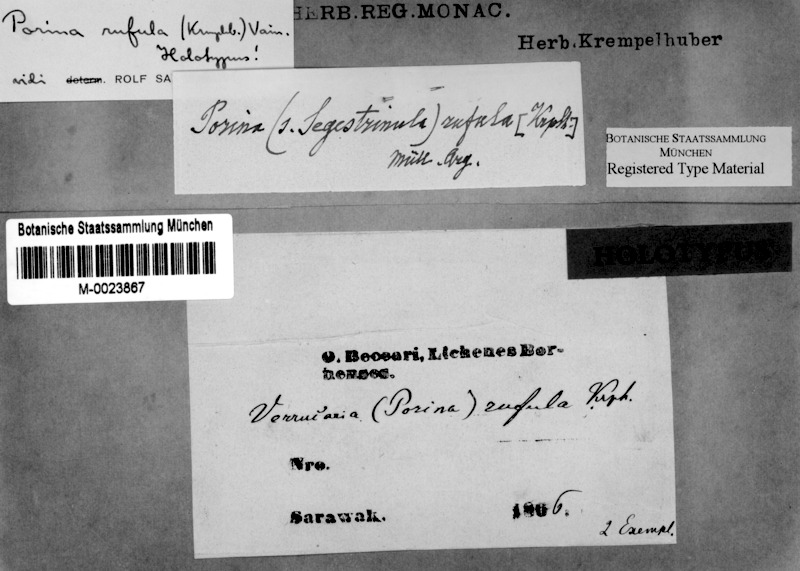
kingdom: Fungi
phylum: Ascomycota
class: Lecanoromycetes
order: Pertusariales
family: Pertusariaceae
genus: Porina
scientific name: Porina rufula
